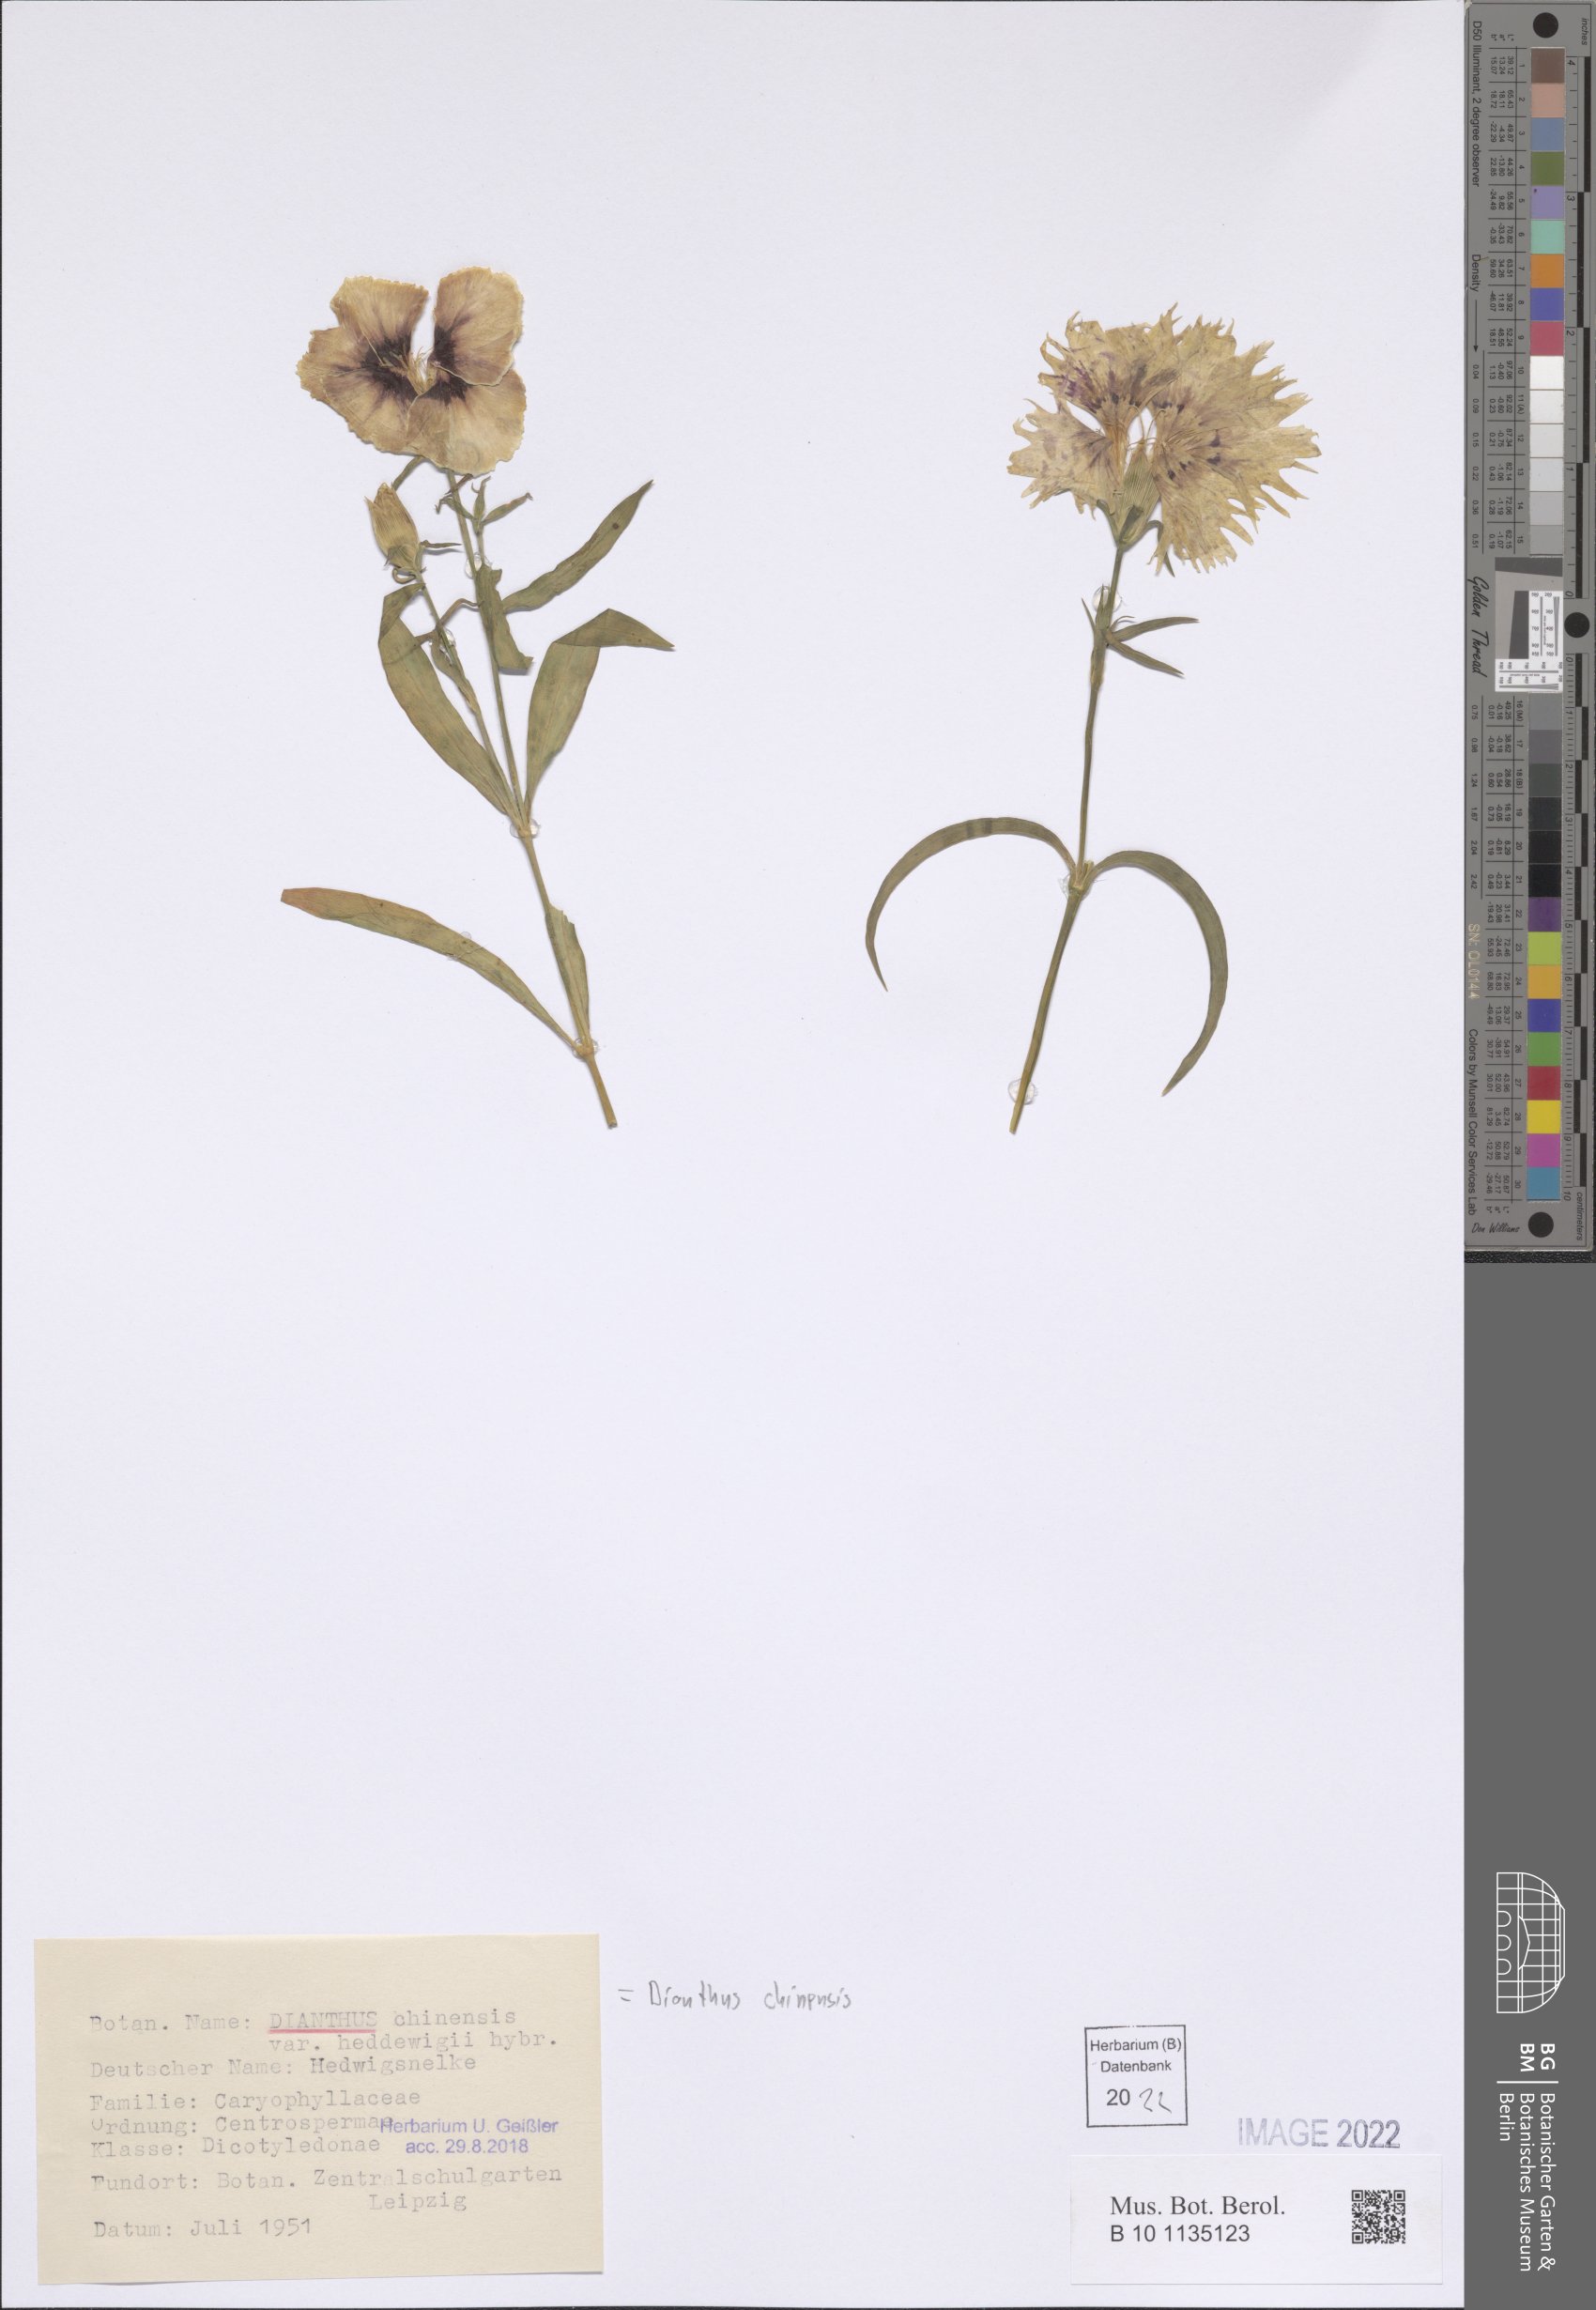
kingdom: Plantae
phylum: Tracheophyta
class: Magnoliopsida
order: Caryophyllales
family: Caryophyllaceae
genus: Dianthus
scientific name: Dianthus chinensis
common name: Rainbow pink
